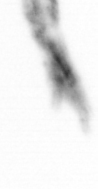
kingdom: Animalia
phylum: Arthropoda
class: Copepoda
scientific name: Copepoda
